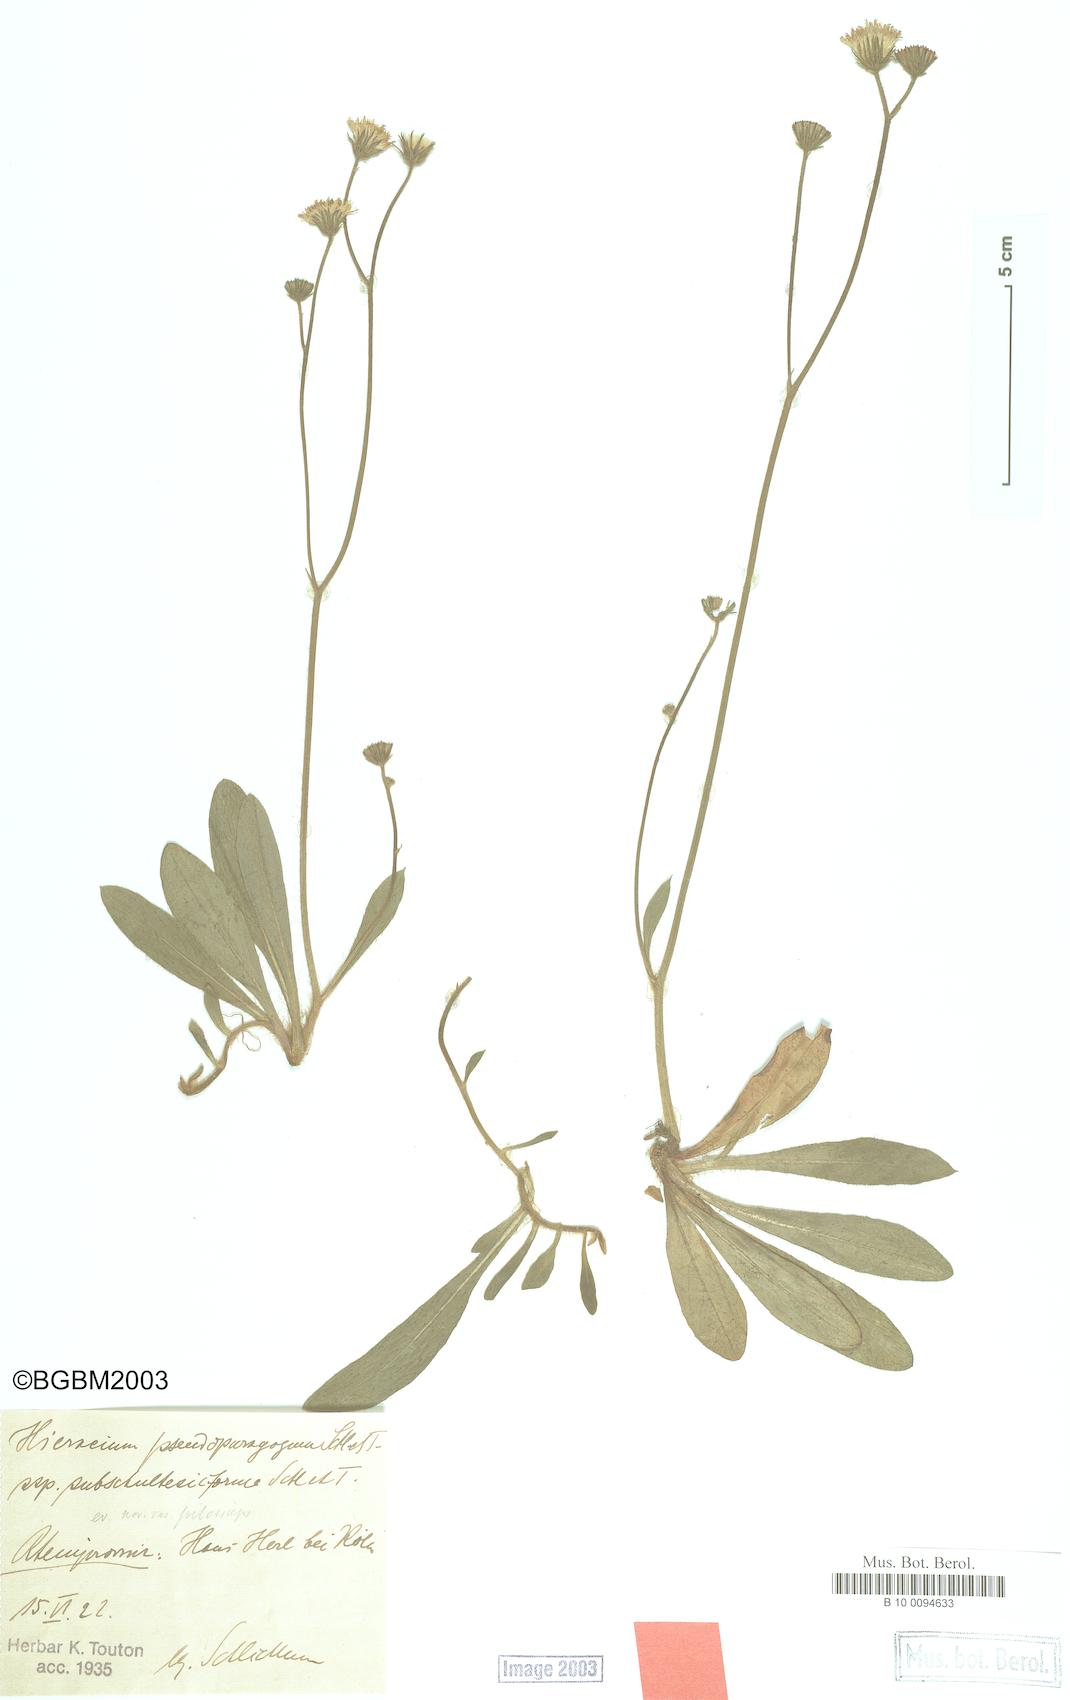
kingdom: Plantae
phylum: Tracheophyta
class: Magnoliopsida
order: Asterales
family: Asteraceae
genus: Pilosella
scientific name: Pilosella pseudoparagoga
